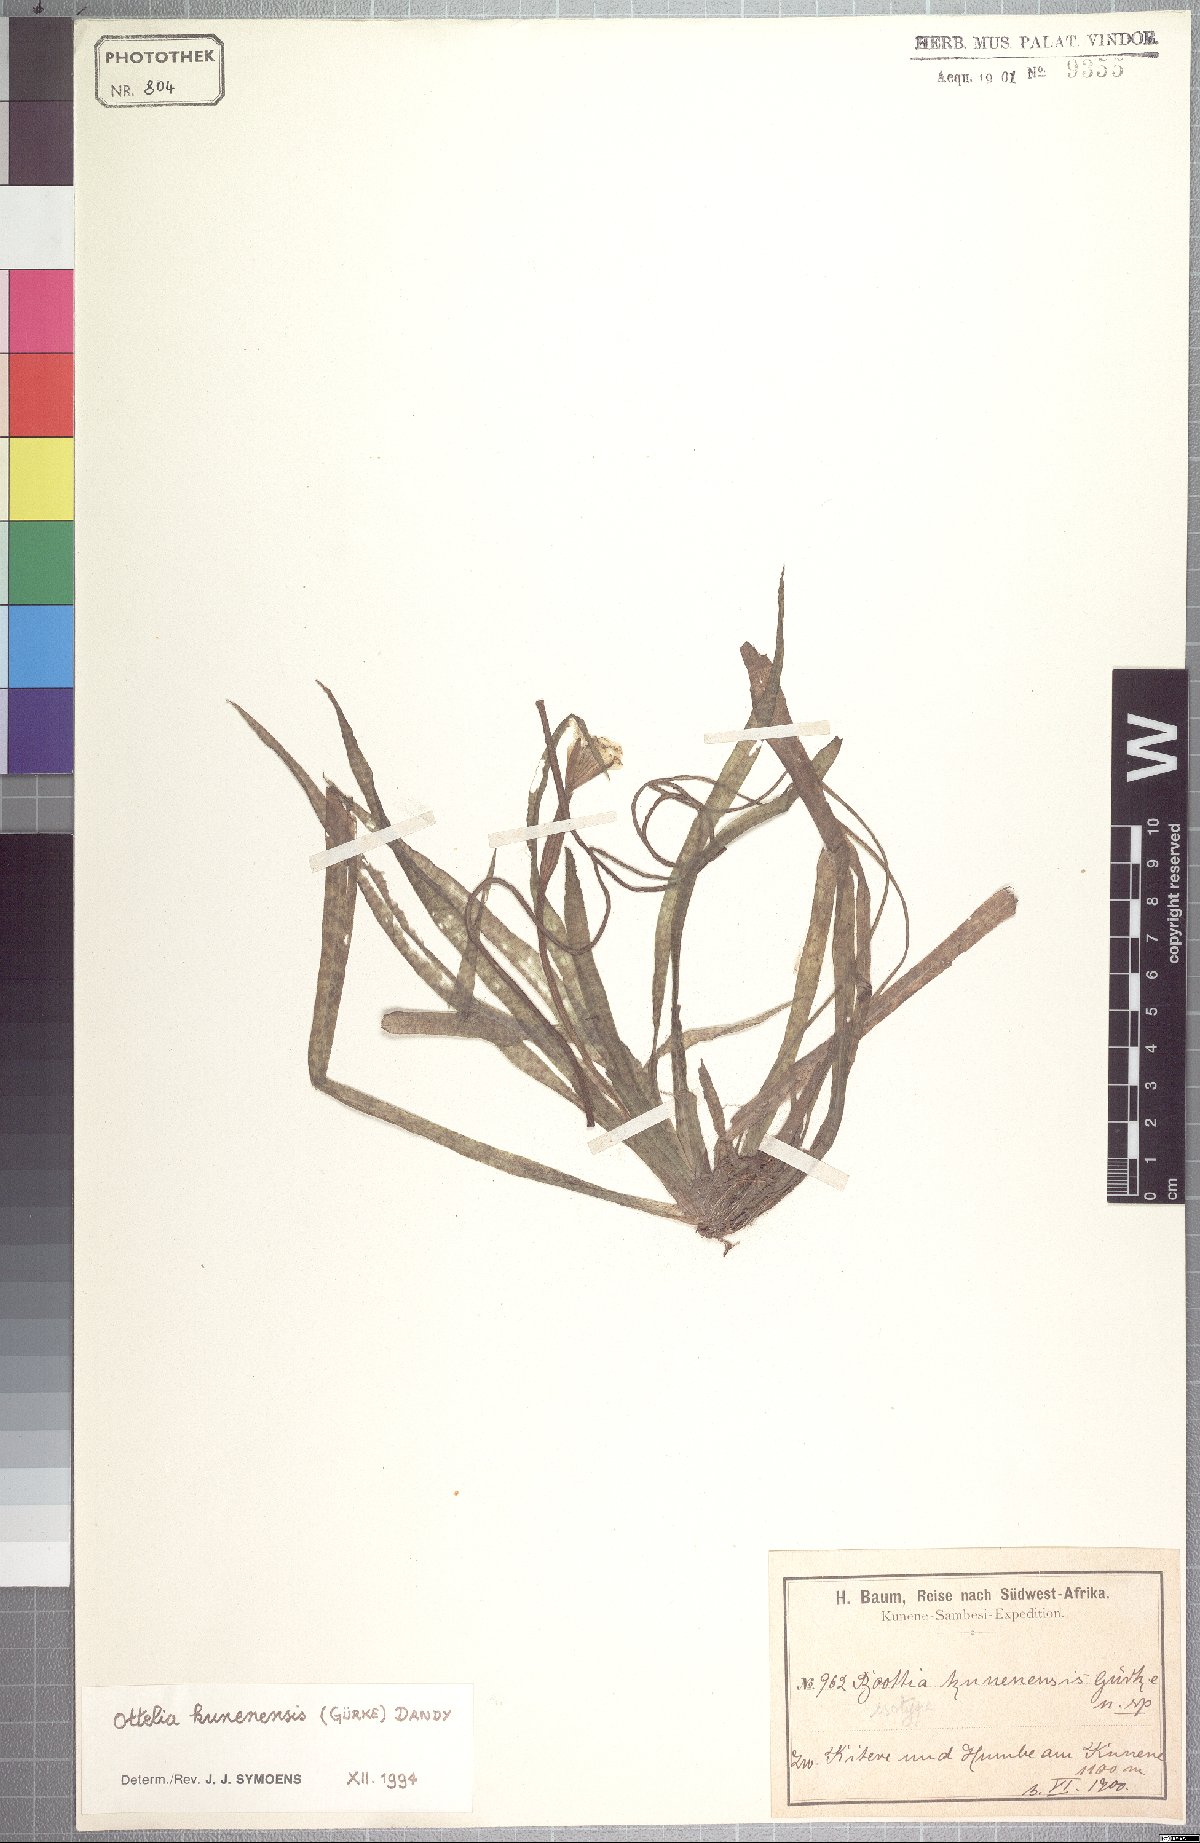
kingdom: Plantae
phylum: Tracheophyta
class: Liliopsida
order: Alismatales
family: Hydrocharitaceae
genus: Ottelia
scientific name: Ottelia kunenensis
